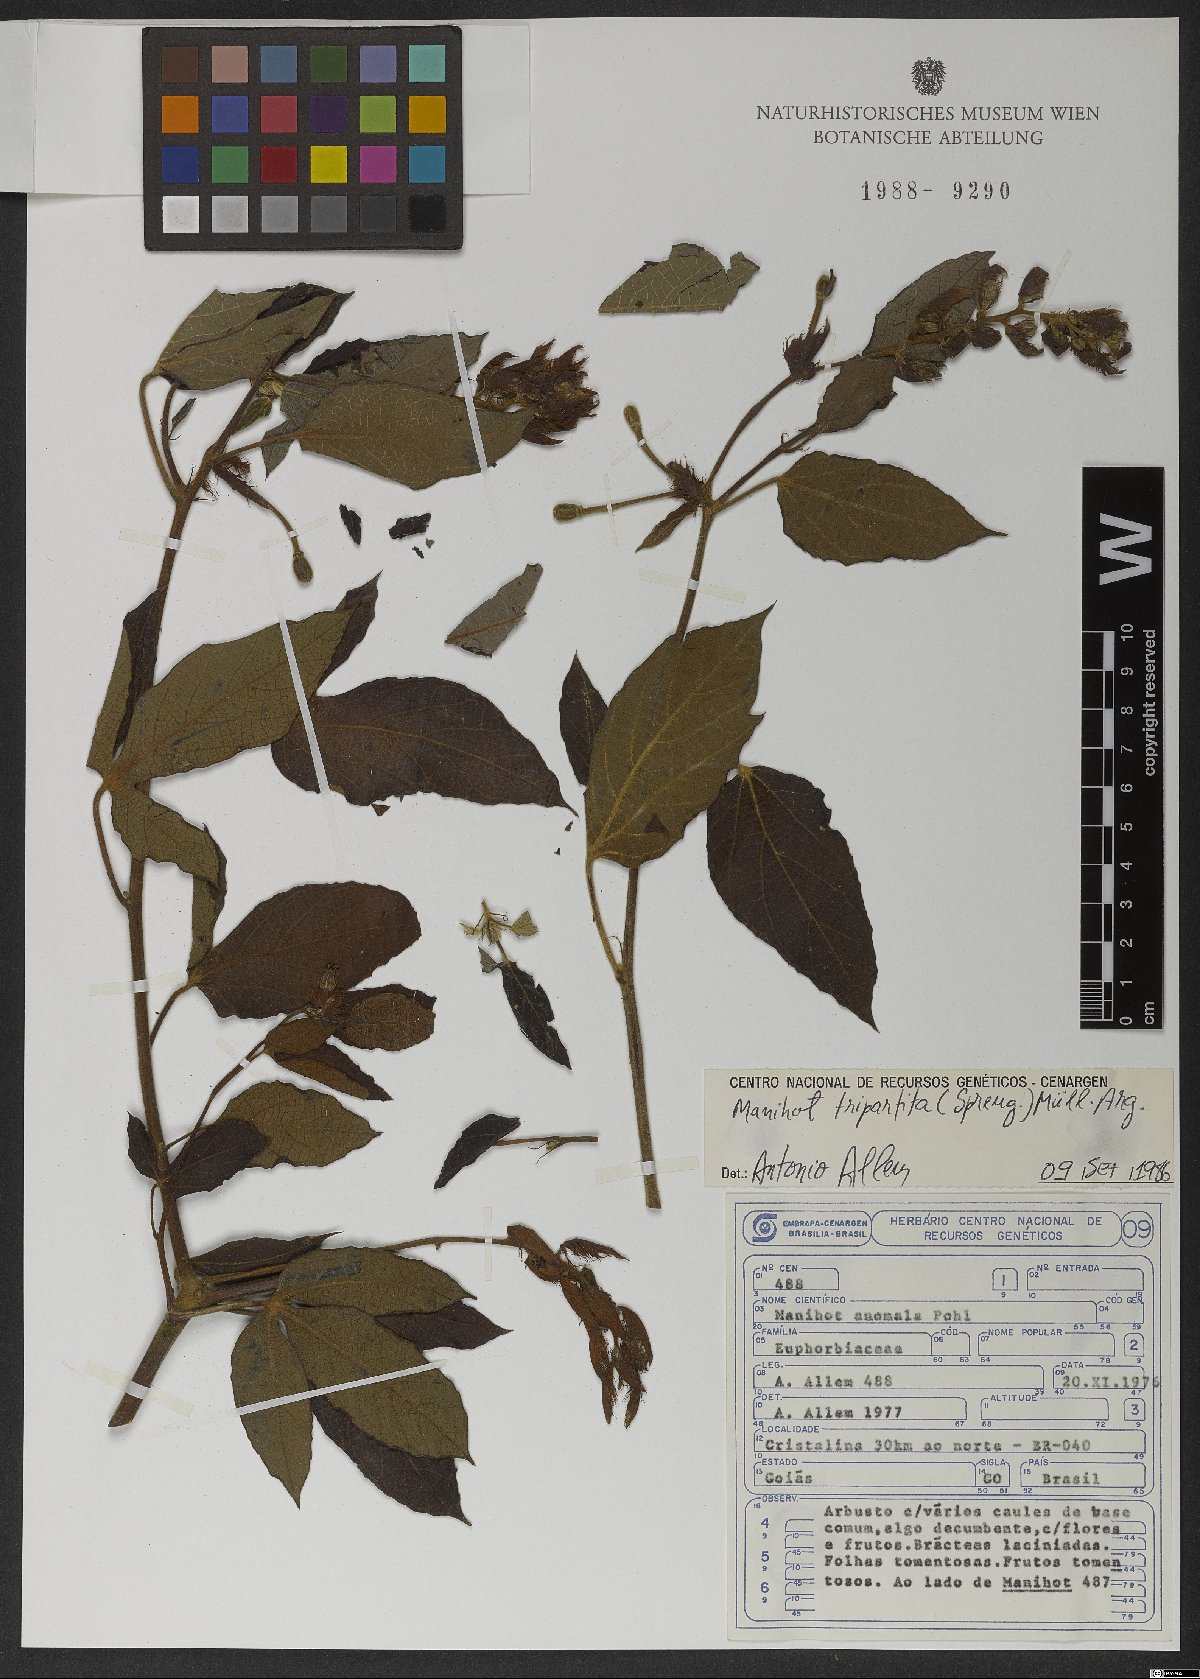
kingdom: Plantae
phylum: Tracheophyta
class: Magnoliopsida
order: Malpighiales
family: Euphorbiaceae
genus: Manihot
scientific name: Manihot tripartita
